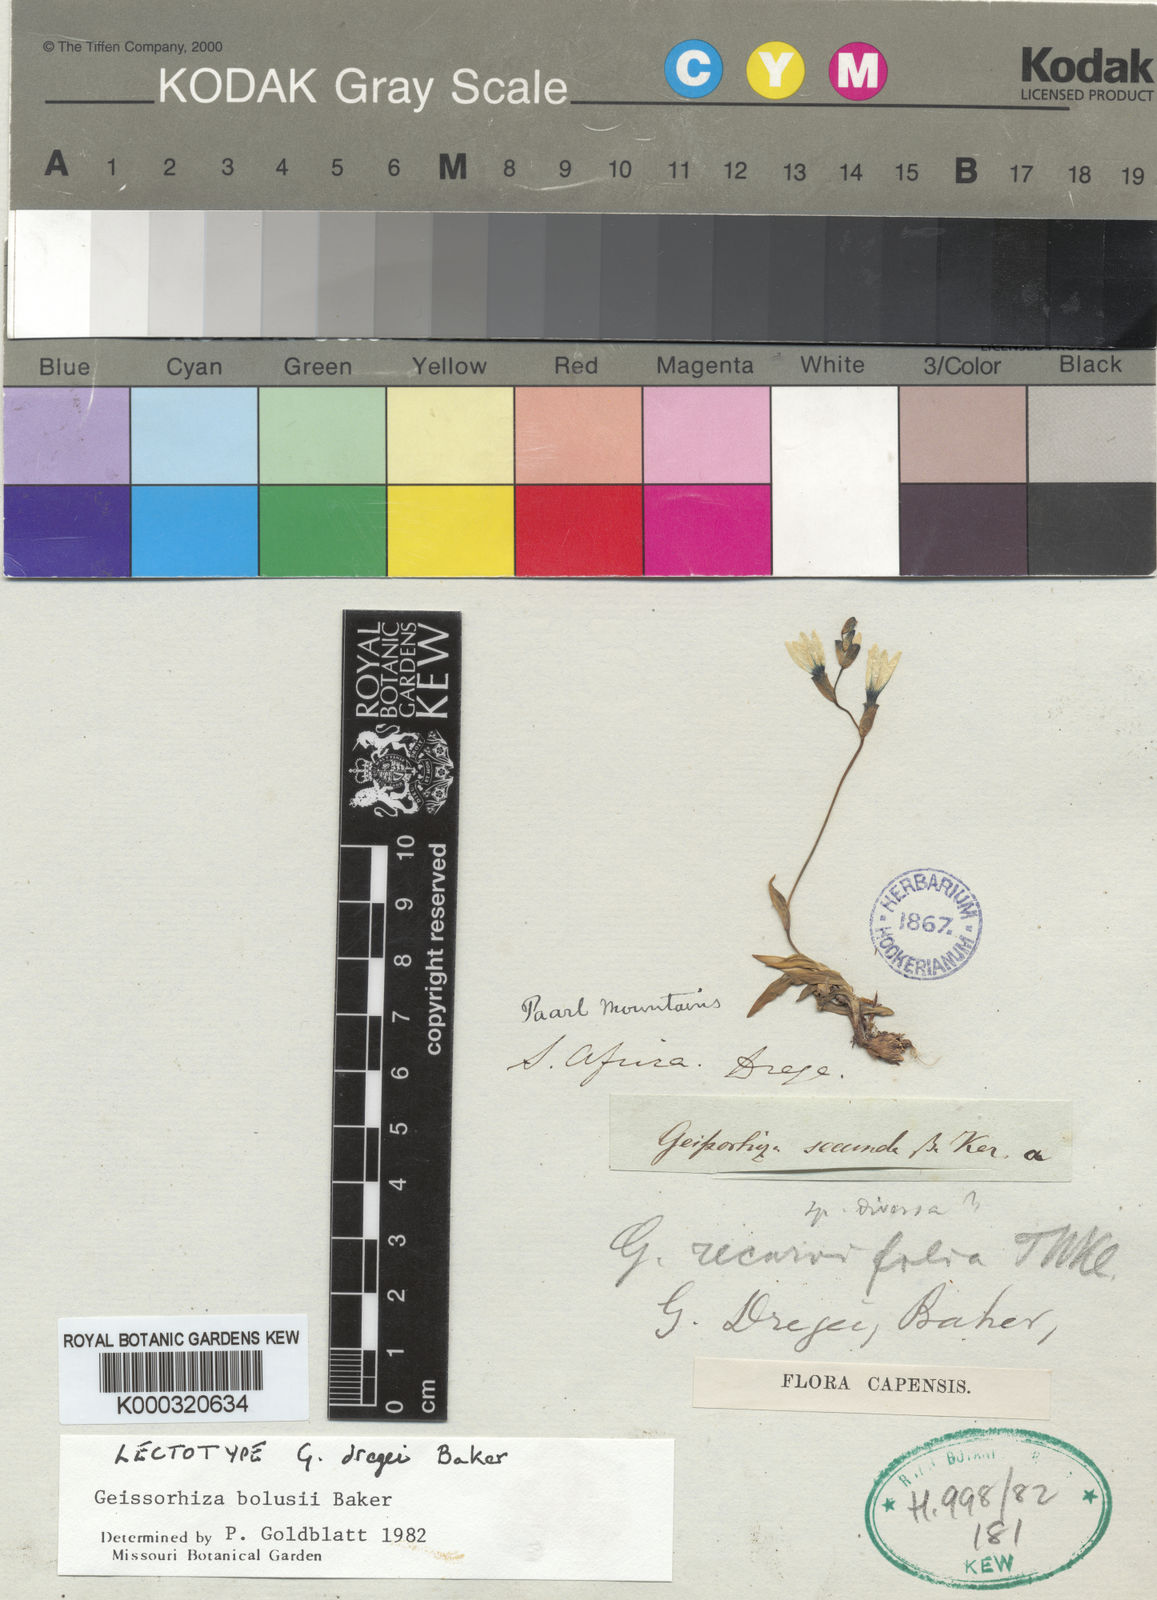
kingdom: Plantae
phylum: Tracheophyta
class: Liliopsida
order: Asparagales
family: Iridaceae
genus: Geissorhiza
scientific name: Geissorhiza bolusii
